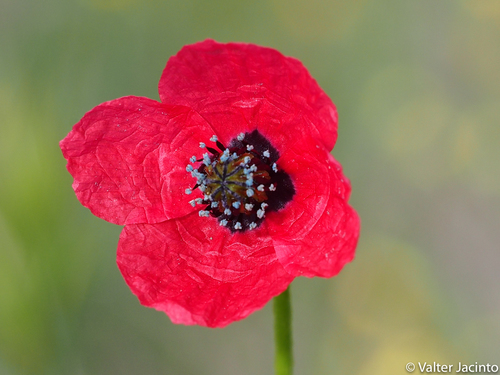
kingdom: Plantae
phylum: Tracheophyta
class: Magnoliopsida
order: Ranunculales
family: Papaveraceae
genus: Roemeria
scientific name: Roemeria
